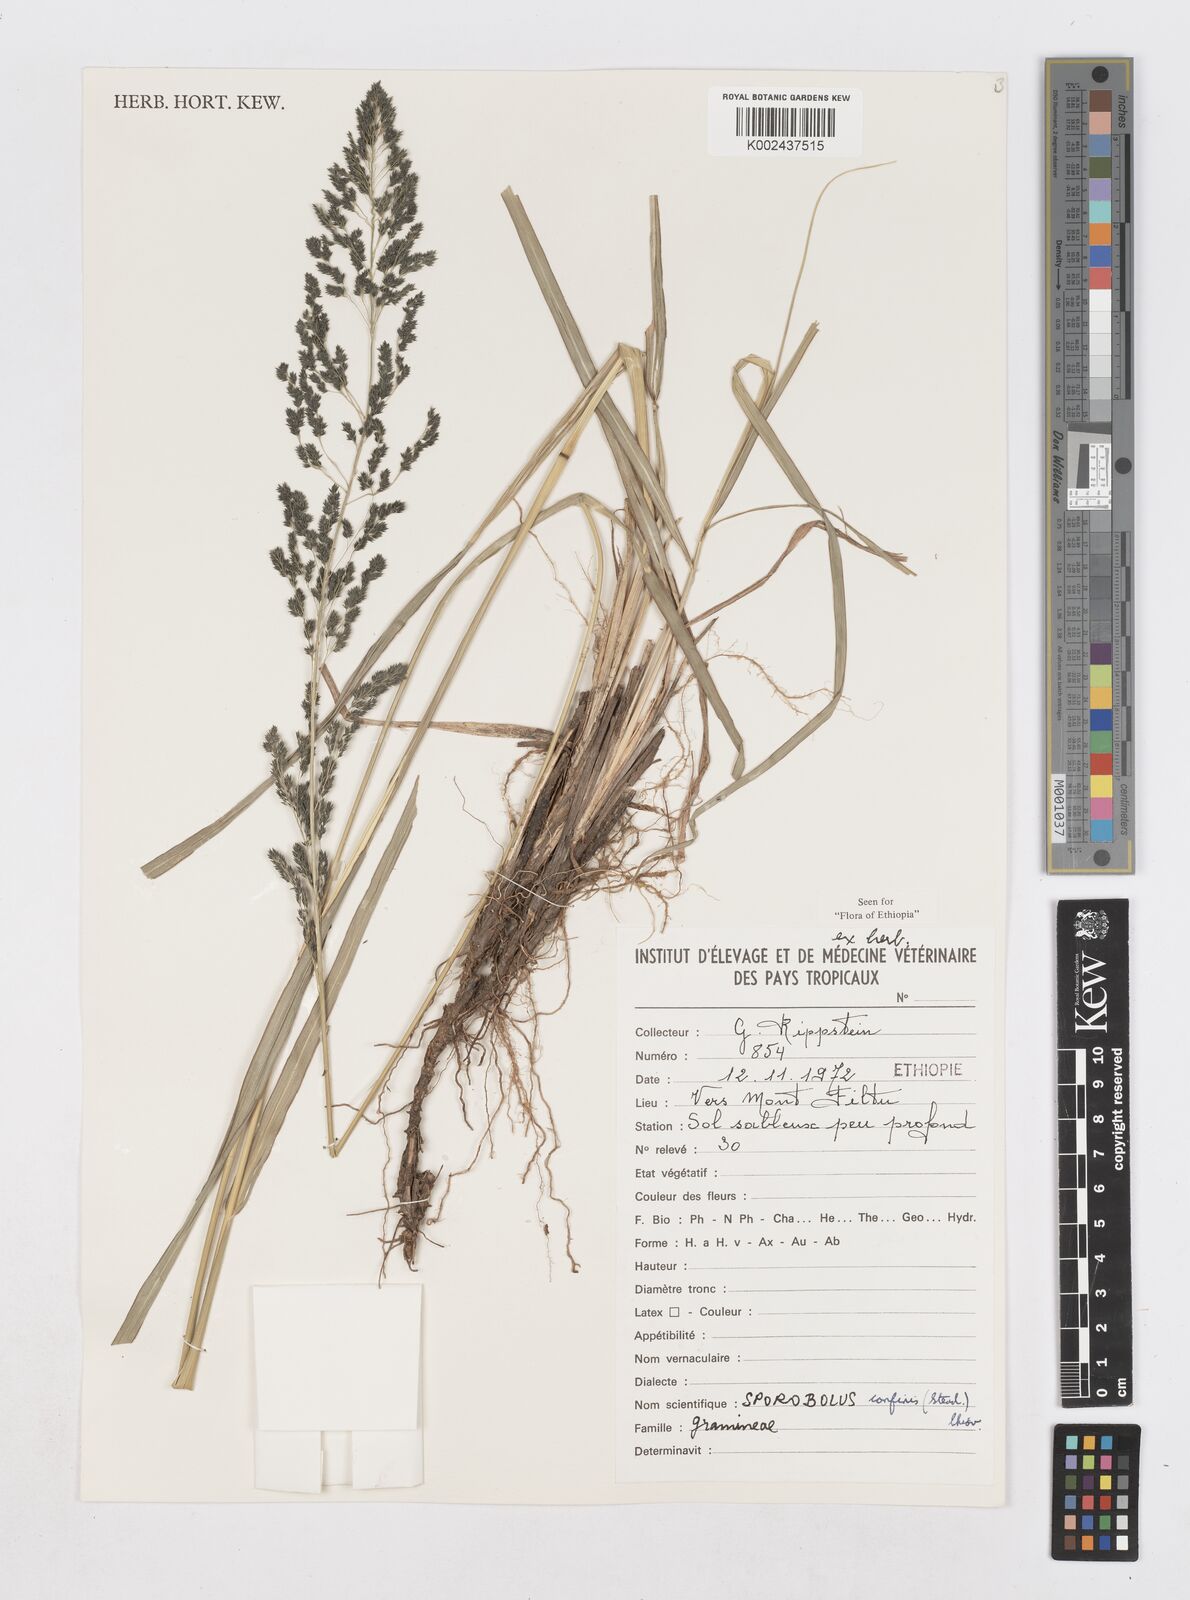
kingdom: Plantae
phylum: Tracheophyta
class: Liliopsida
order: Poales
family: Poaceae
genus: Sporobolus
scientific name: Sporobolus confinis
